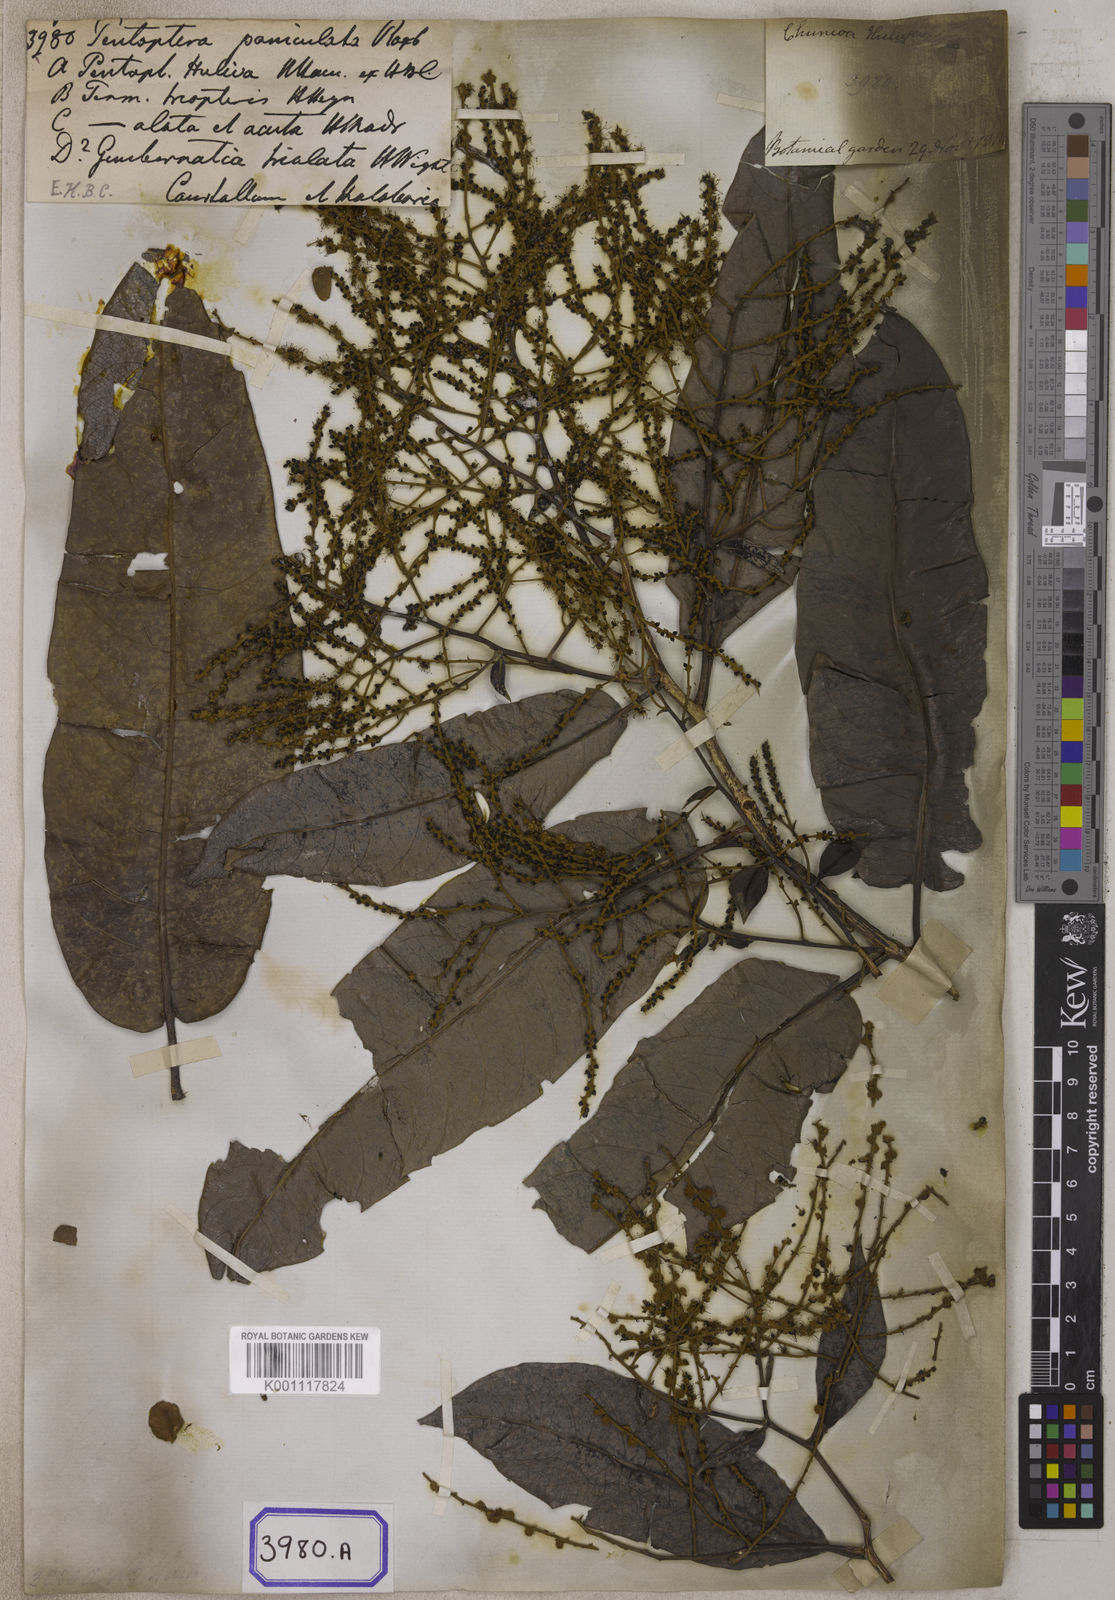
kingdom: Plantae
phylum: Tracheophyta
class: Magnoliopsida
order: Myrtales
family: Combretaceae
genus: Terminalia
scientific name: Terminalia
